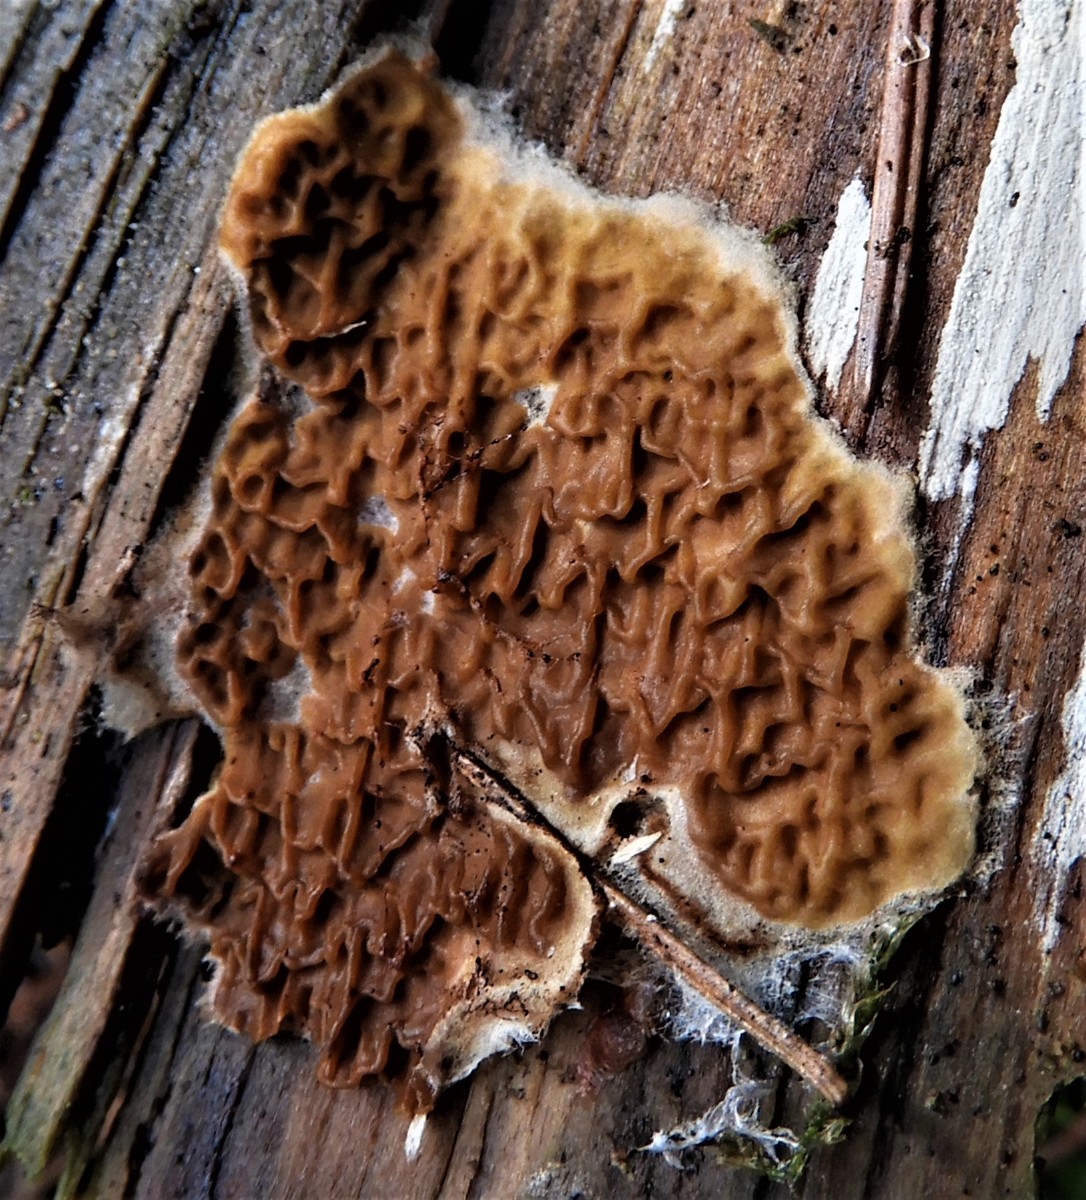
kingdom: Fungi
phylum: Basidiomycota
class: Agaricomycetes
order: Boletales
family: Serpulaceae
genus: Serpula
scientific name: Serpula himantioides
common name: tyndkødet hussvamp
